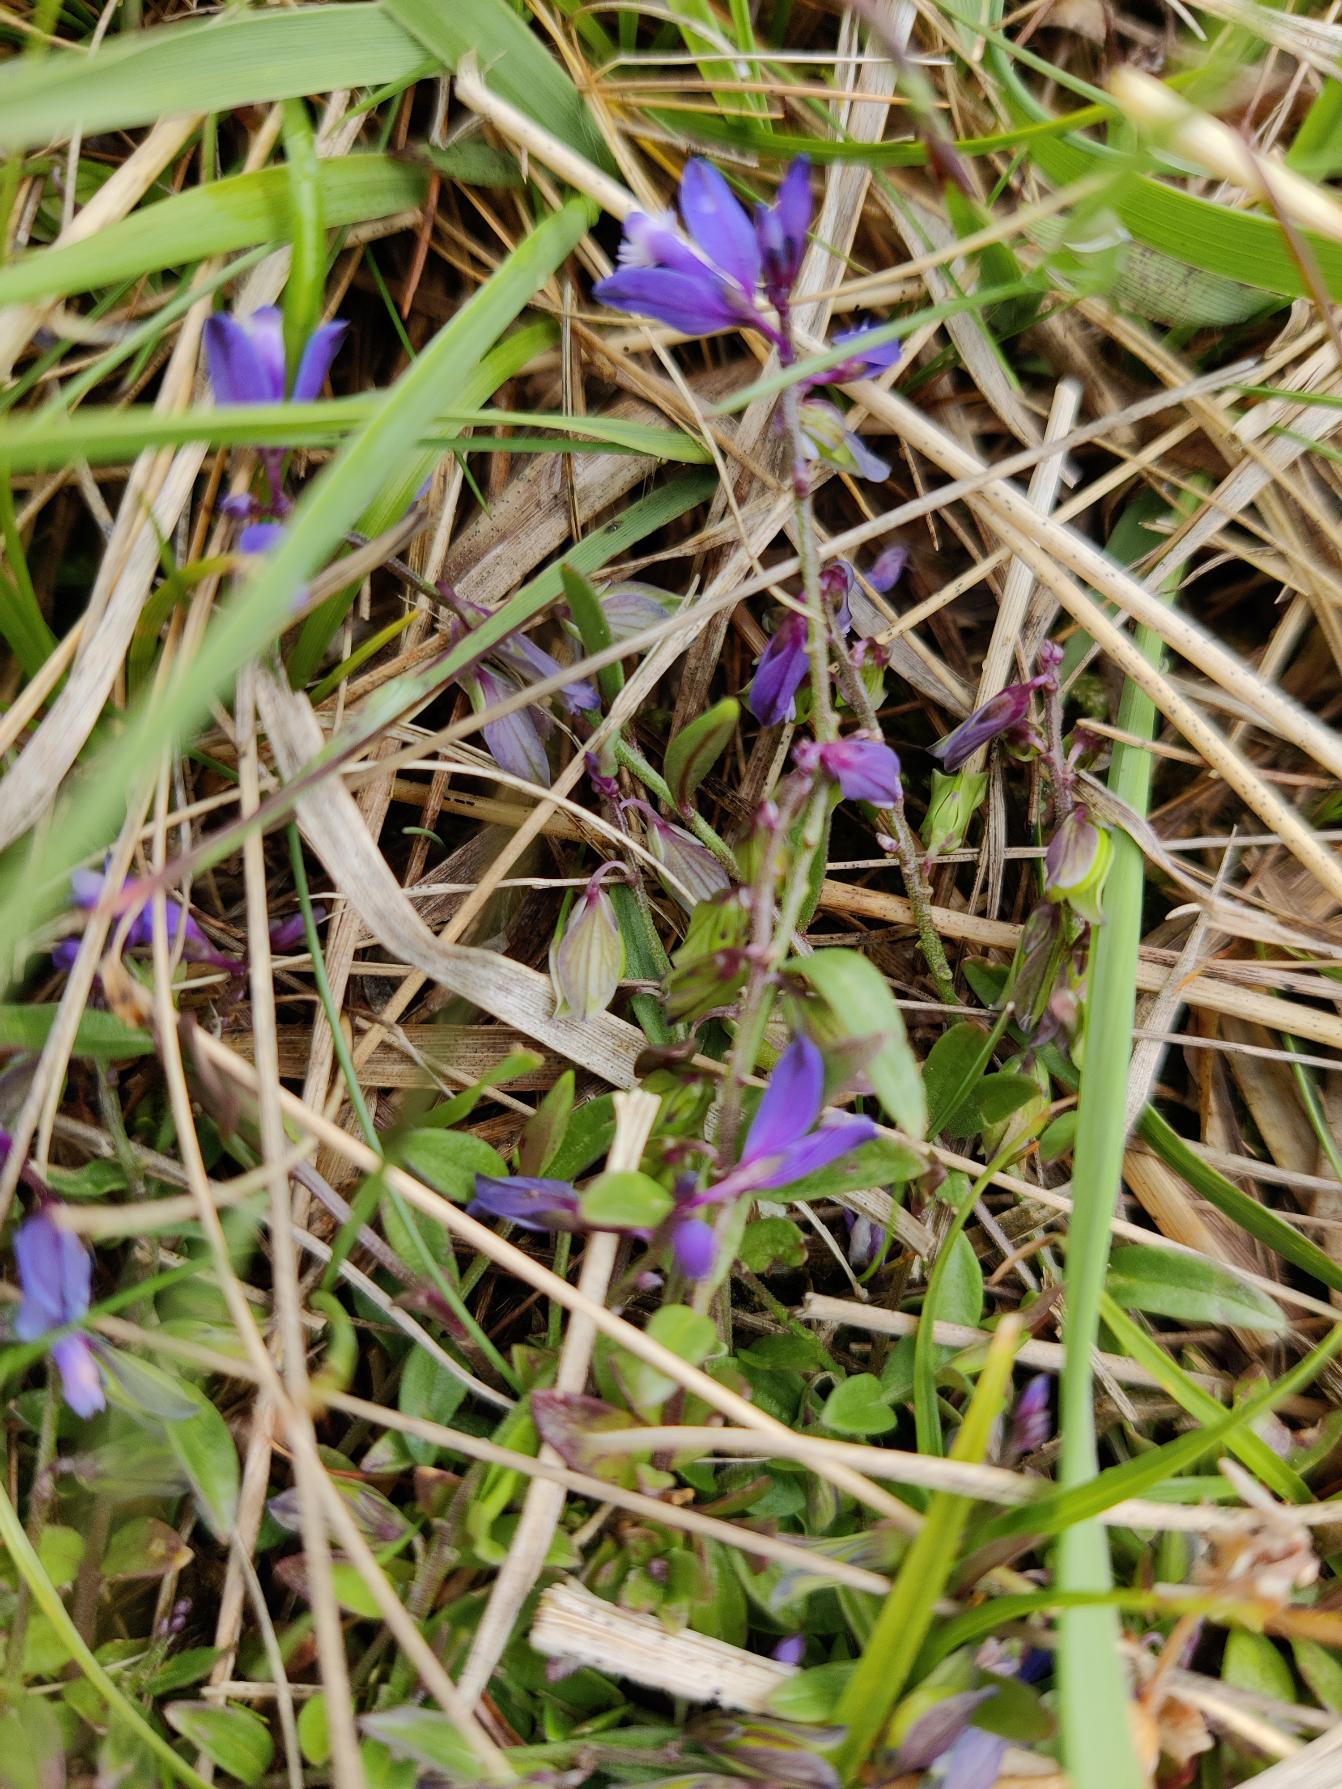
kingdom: Plantae
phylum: Tracheophyta
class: Magnoliopsida
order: Fabales
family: Polygalaceae
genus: Polygala
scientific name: Polygala serpyllifolia
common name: Spæd mælkeurt
